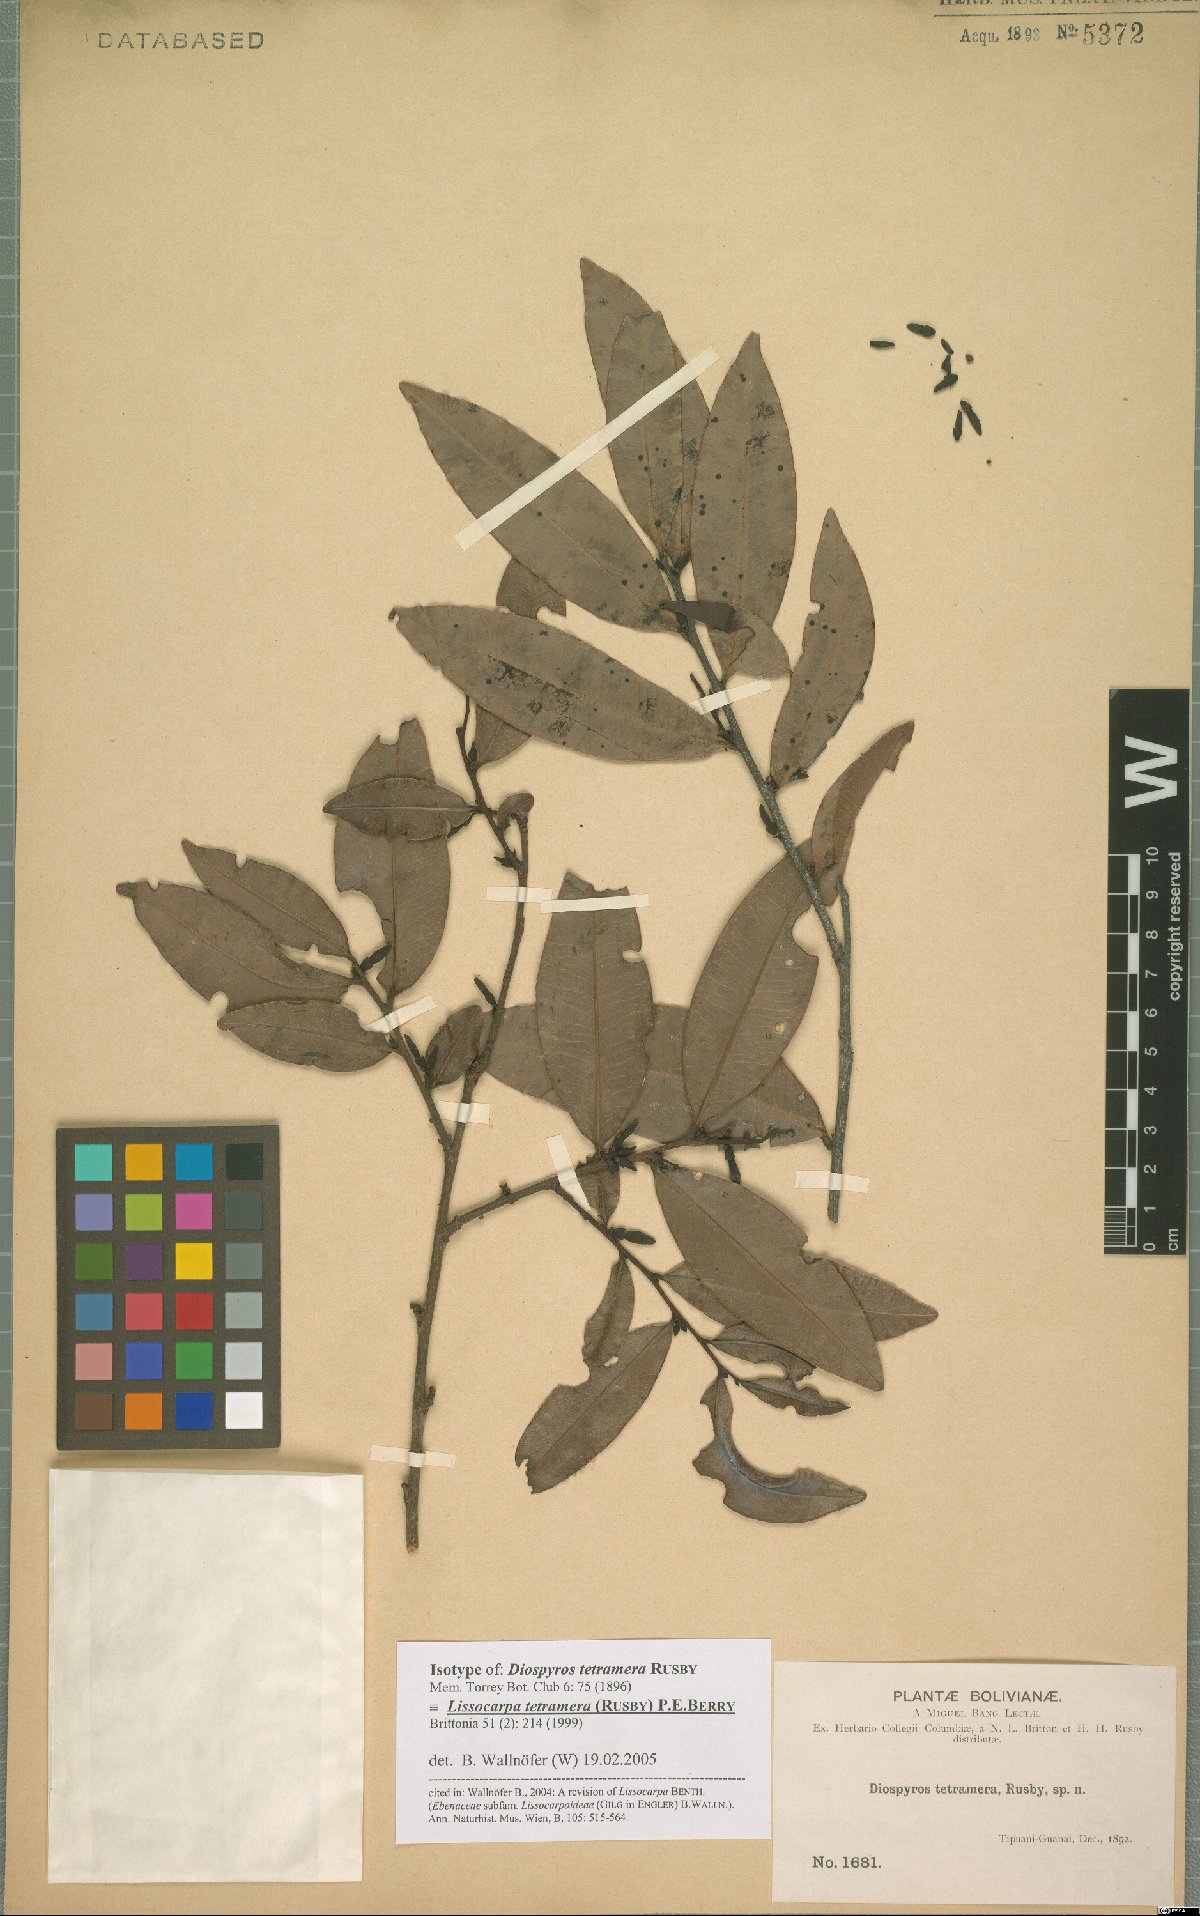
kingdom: Plantae
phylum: Tracheophyta
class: Magnoliopsida
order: Ericales
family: Ebenaceae
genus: Lissocarpa
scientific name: Lissocarpa tetramera
